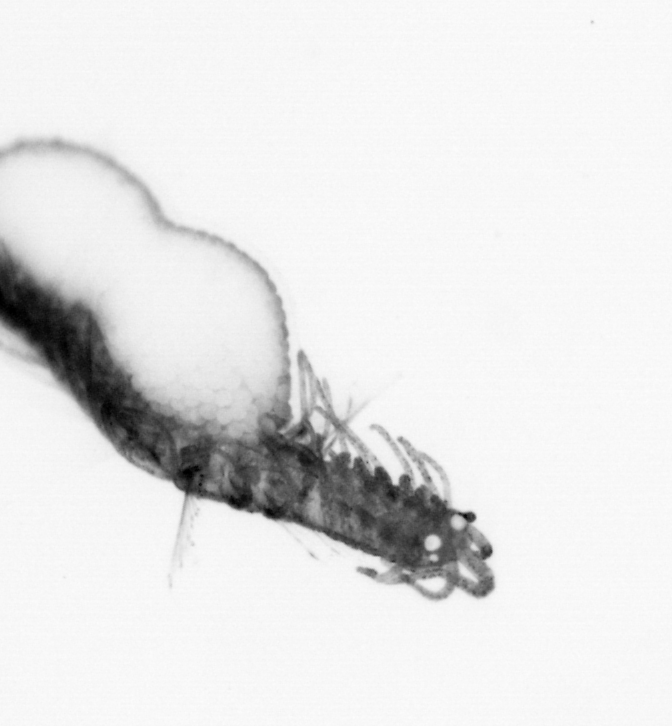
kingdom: Animalia
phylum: Annelida
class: Polychaeta
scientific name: Polychaeta
